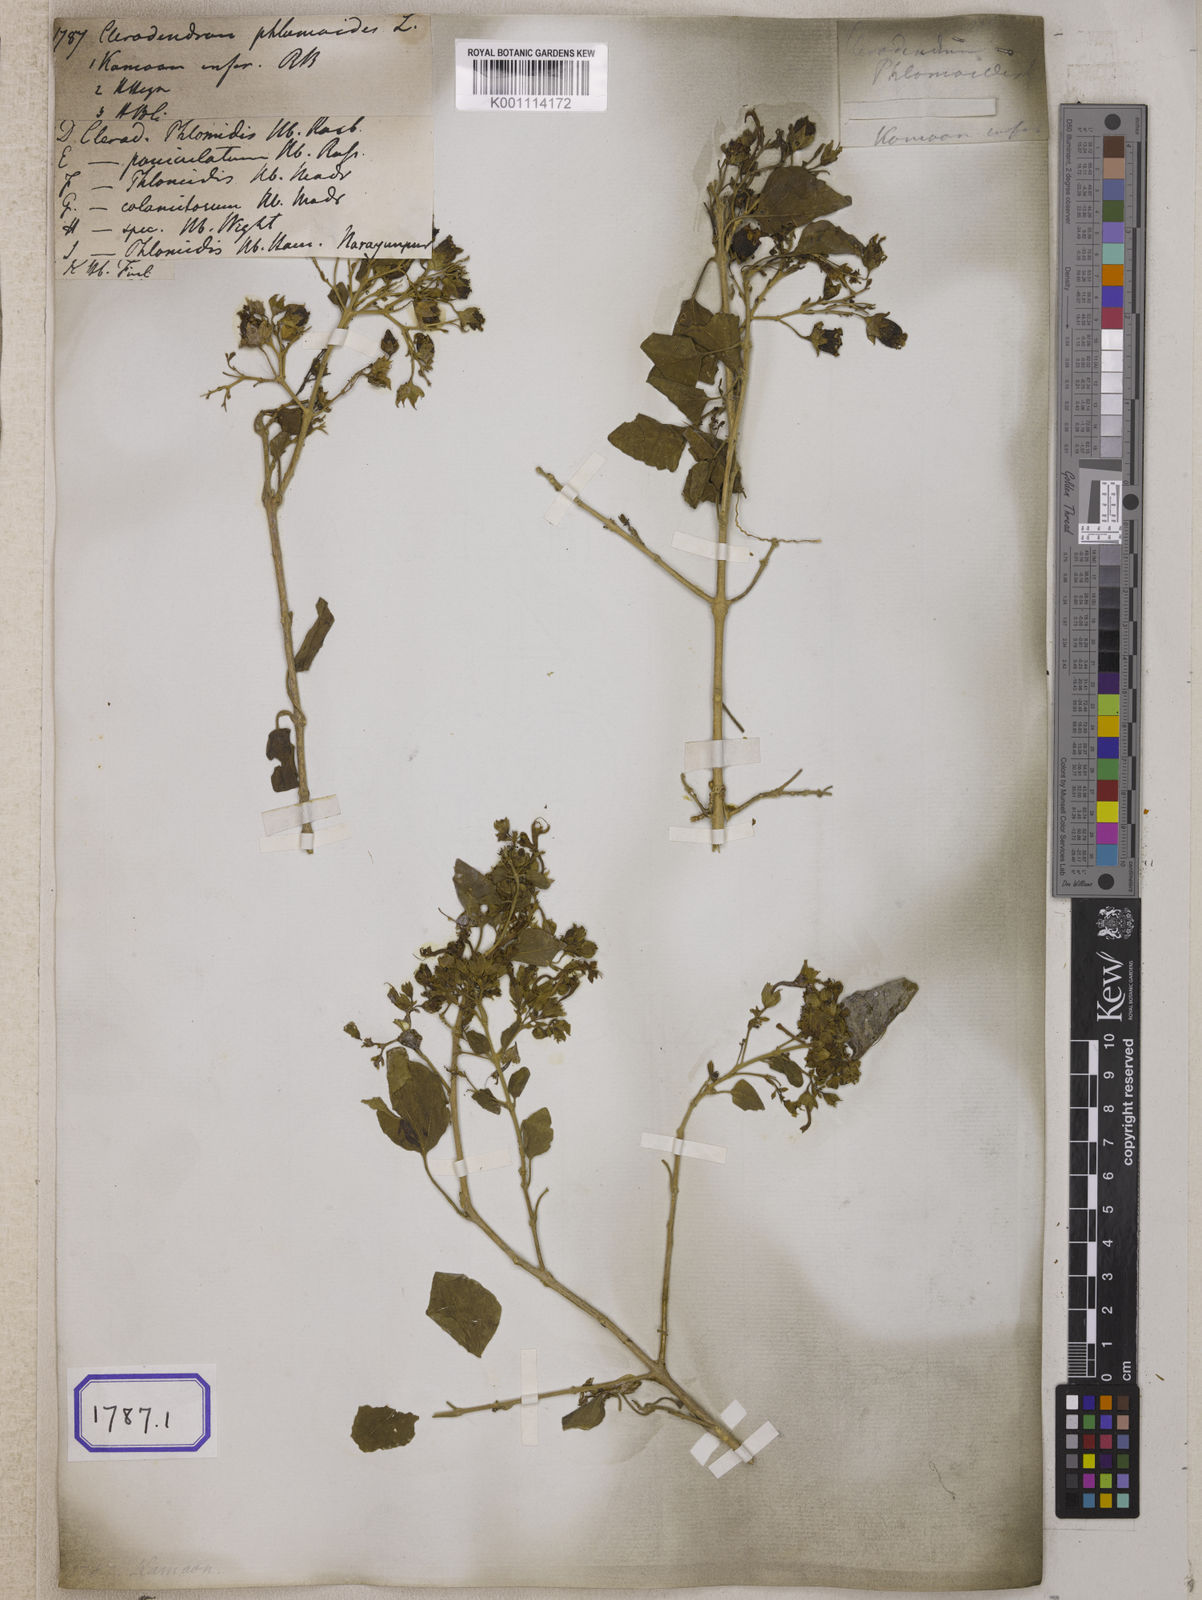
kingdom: Plantae
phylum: Tracheophyta
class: Magnoliopsida
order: Lamiales
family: Lamiaceae
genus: Clerodendrum
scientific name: Clerodendrum
